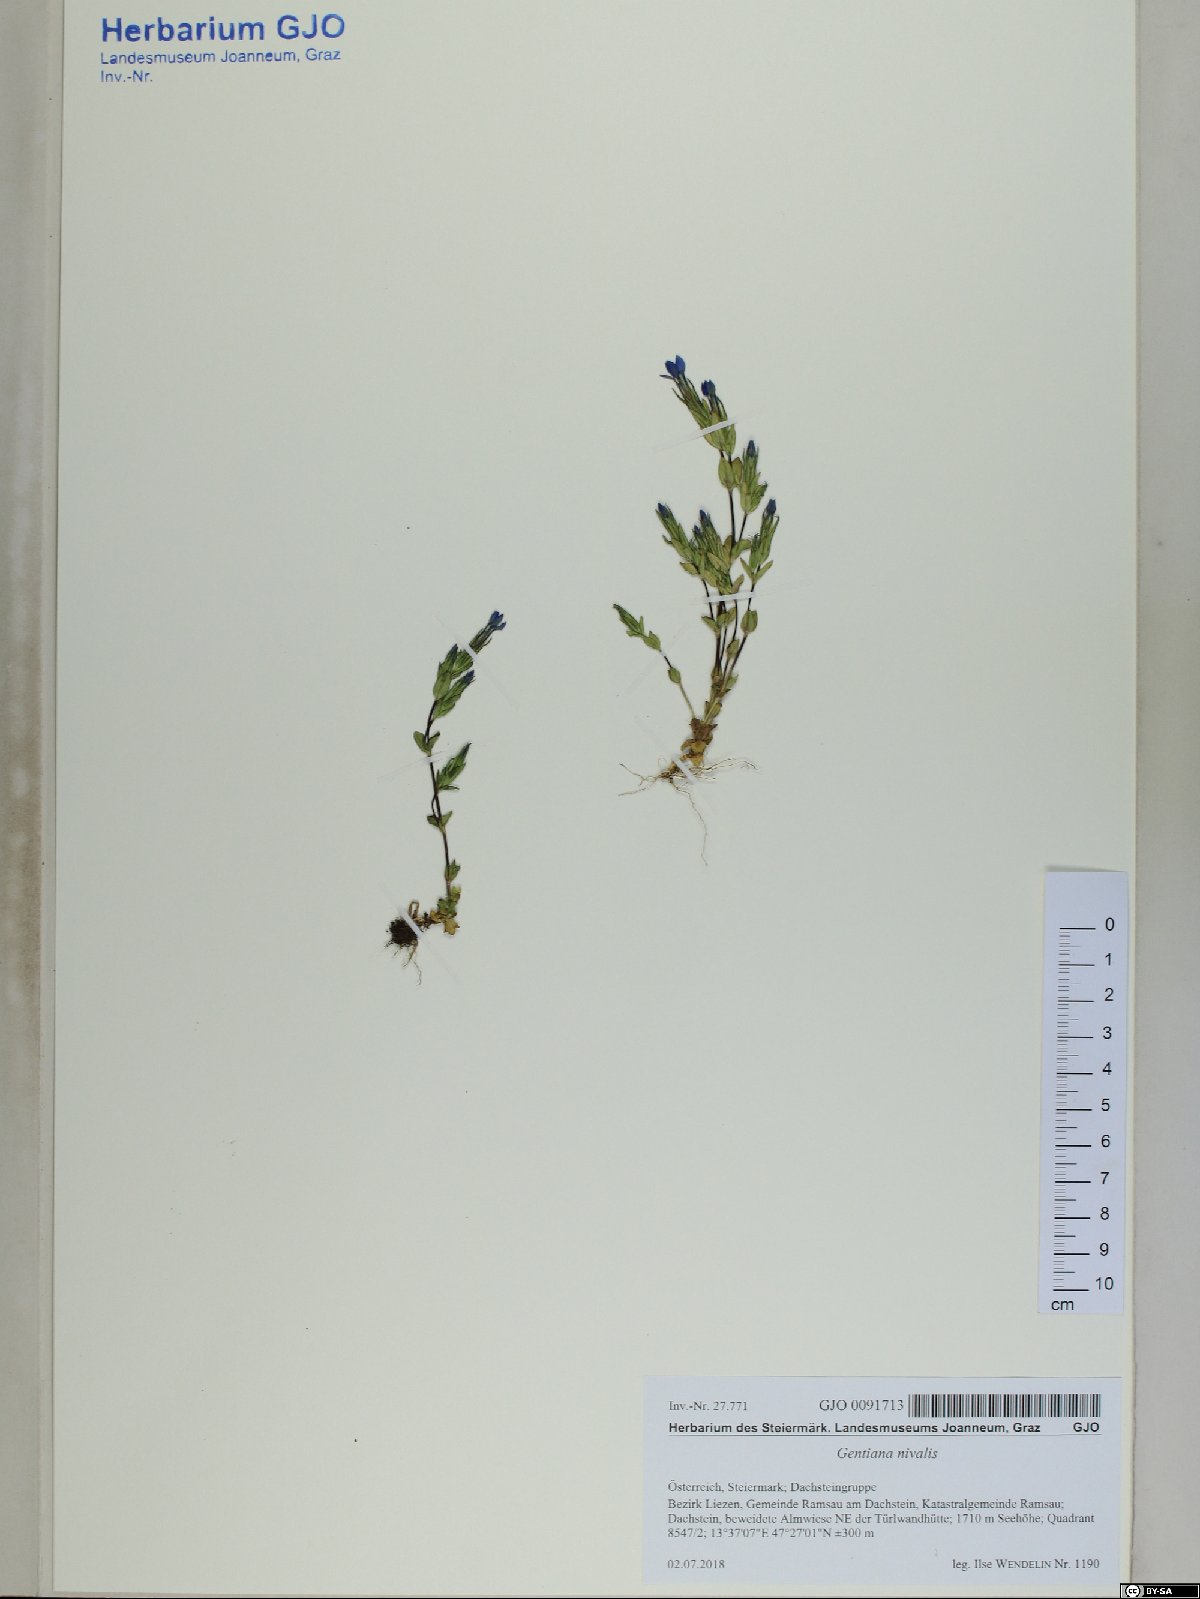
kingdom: Plantae
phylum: Tracheophyta
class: Magnoliopsida
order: Gentianales
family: Gentianaceae
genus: Gentiana
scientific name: Gentiana nivalis
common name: Alpine gentian
